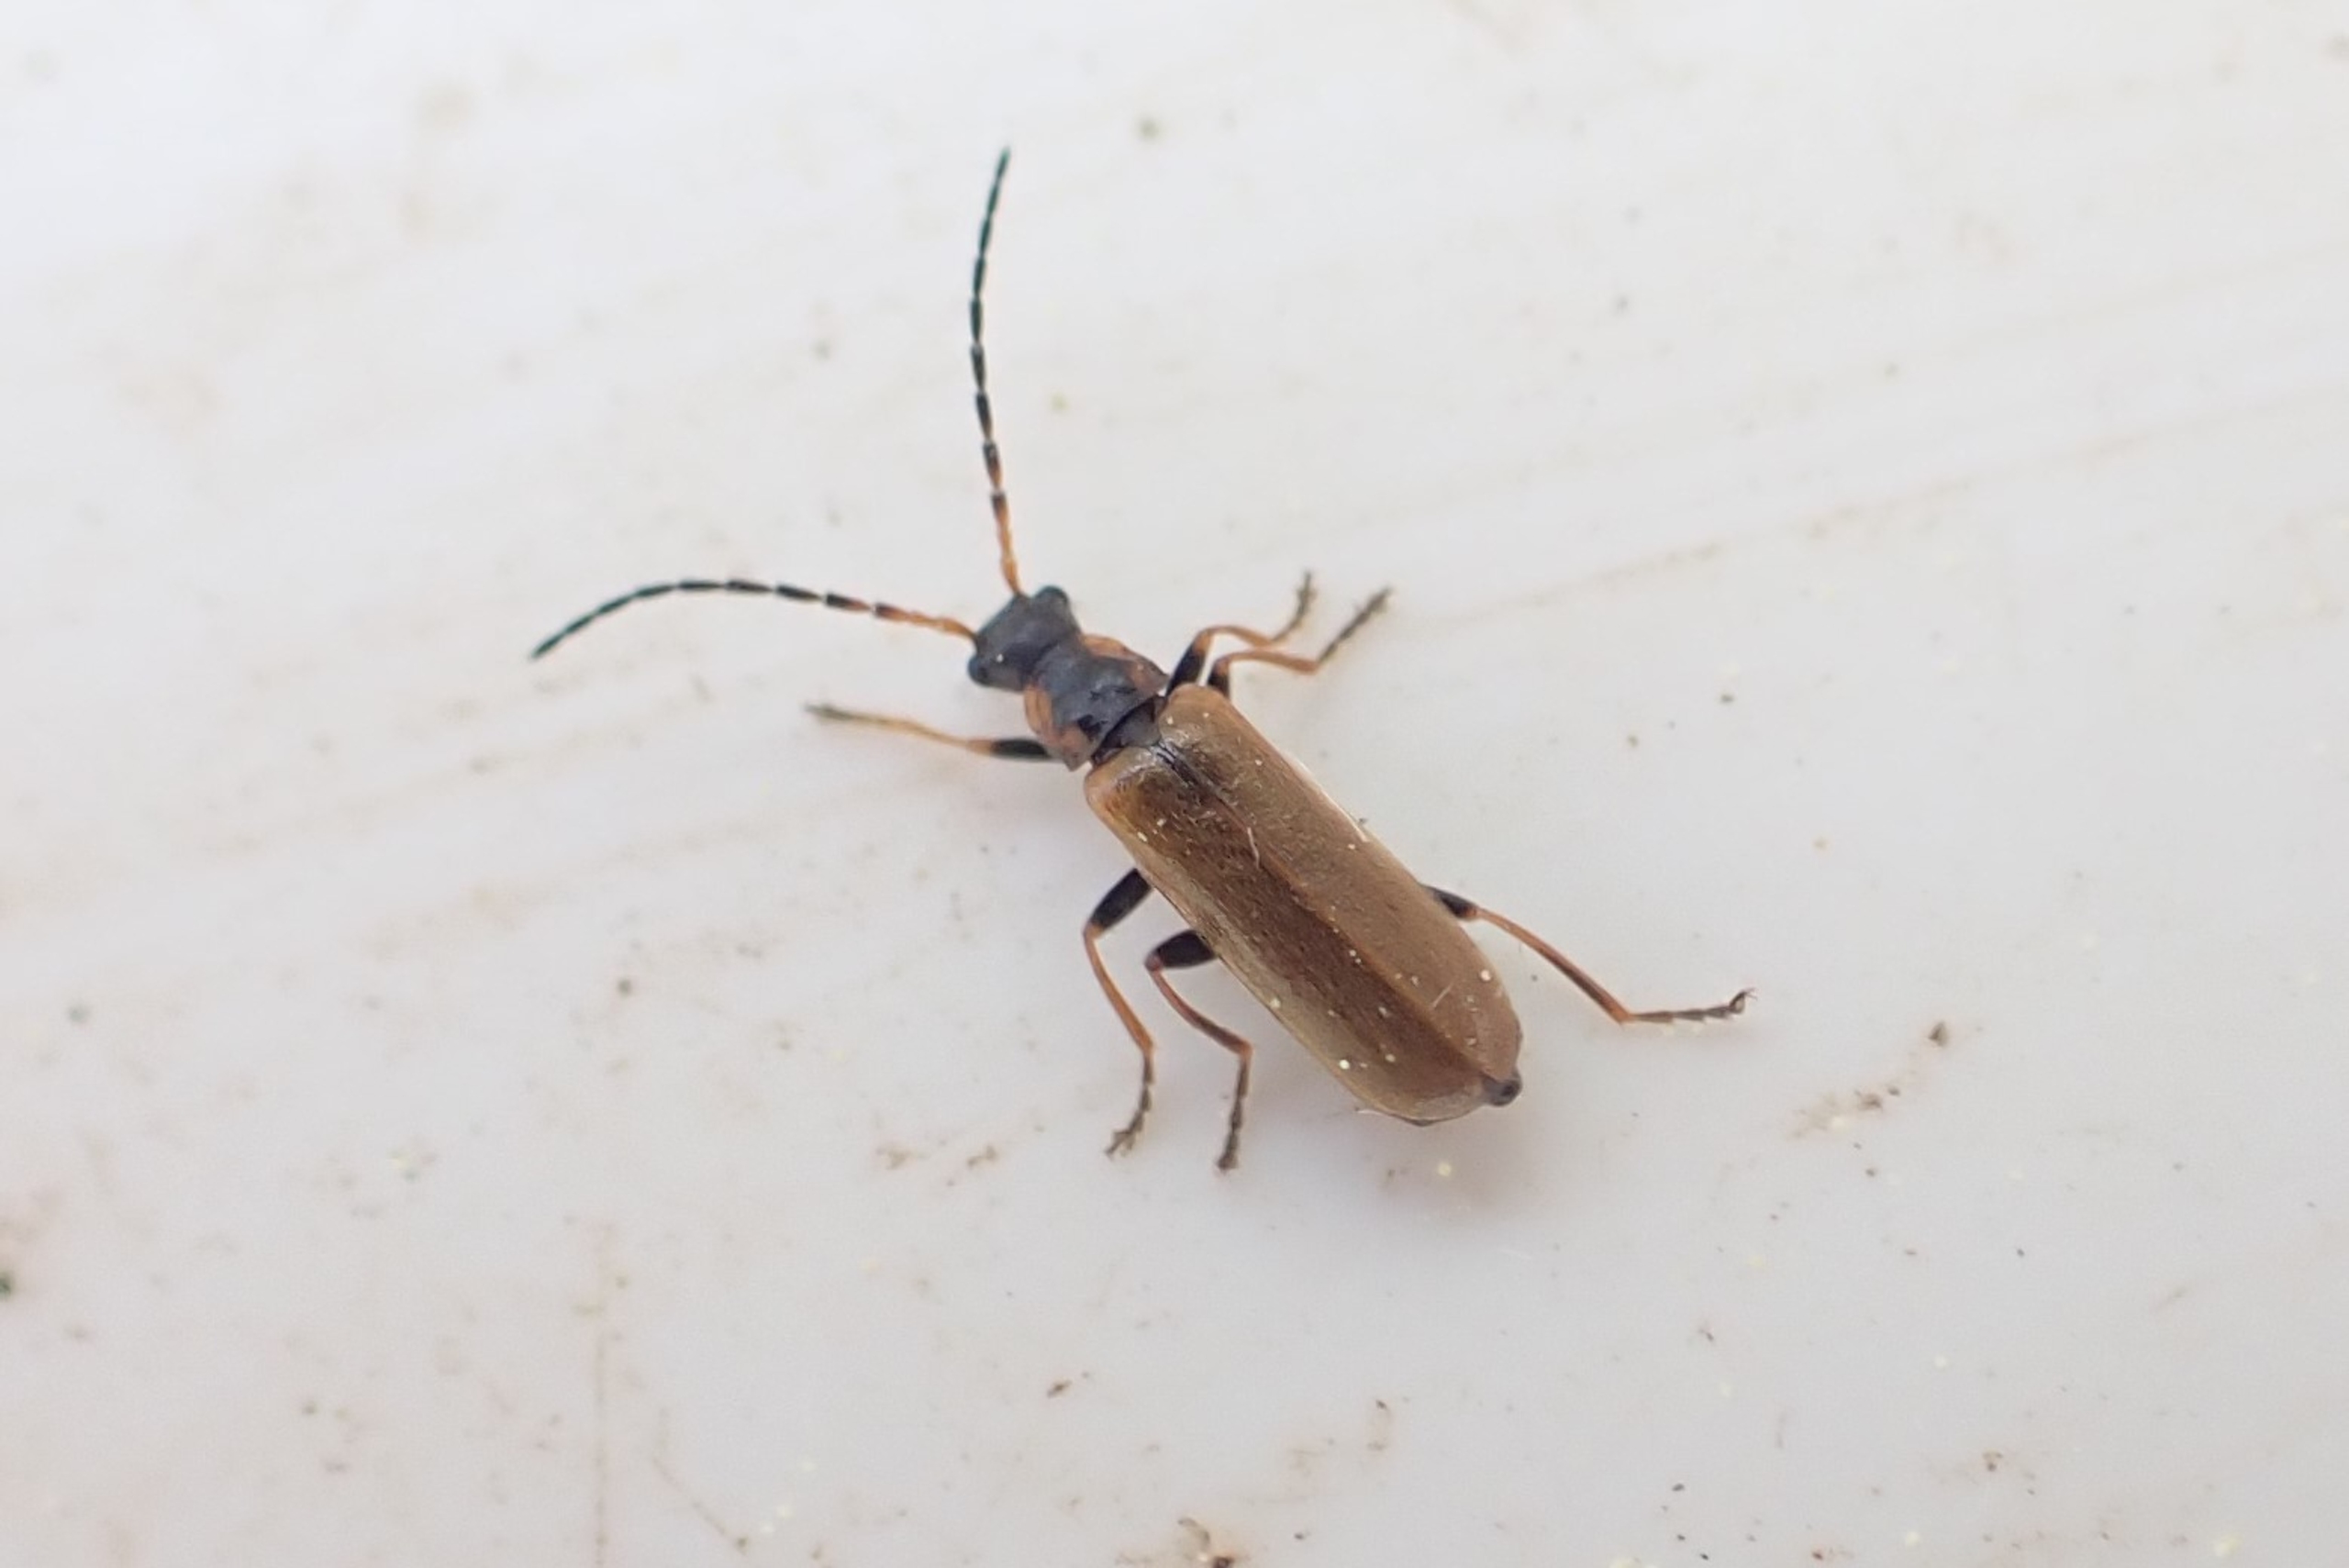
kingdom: Animalia
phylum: Arthropoda
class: Insecta
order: Coleoptera
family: Cantharidae
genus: Rhagonycha
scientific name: Rhagonycha nigriventris
